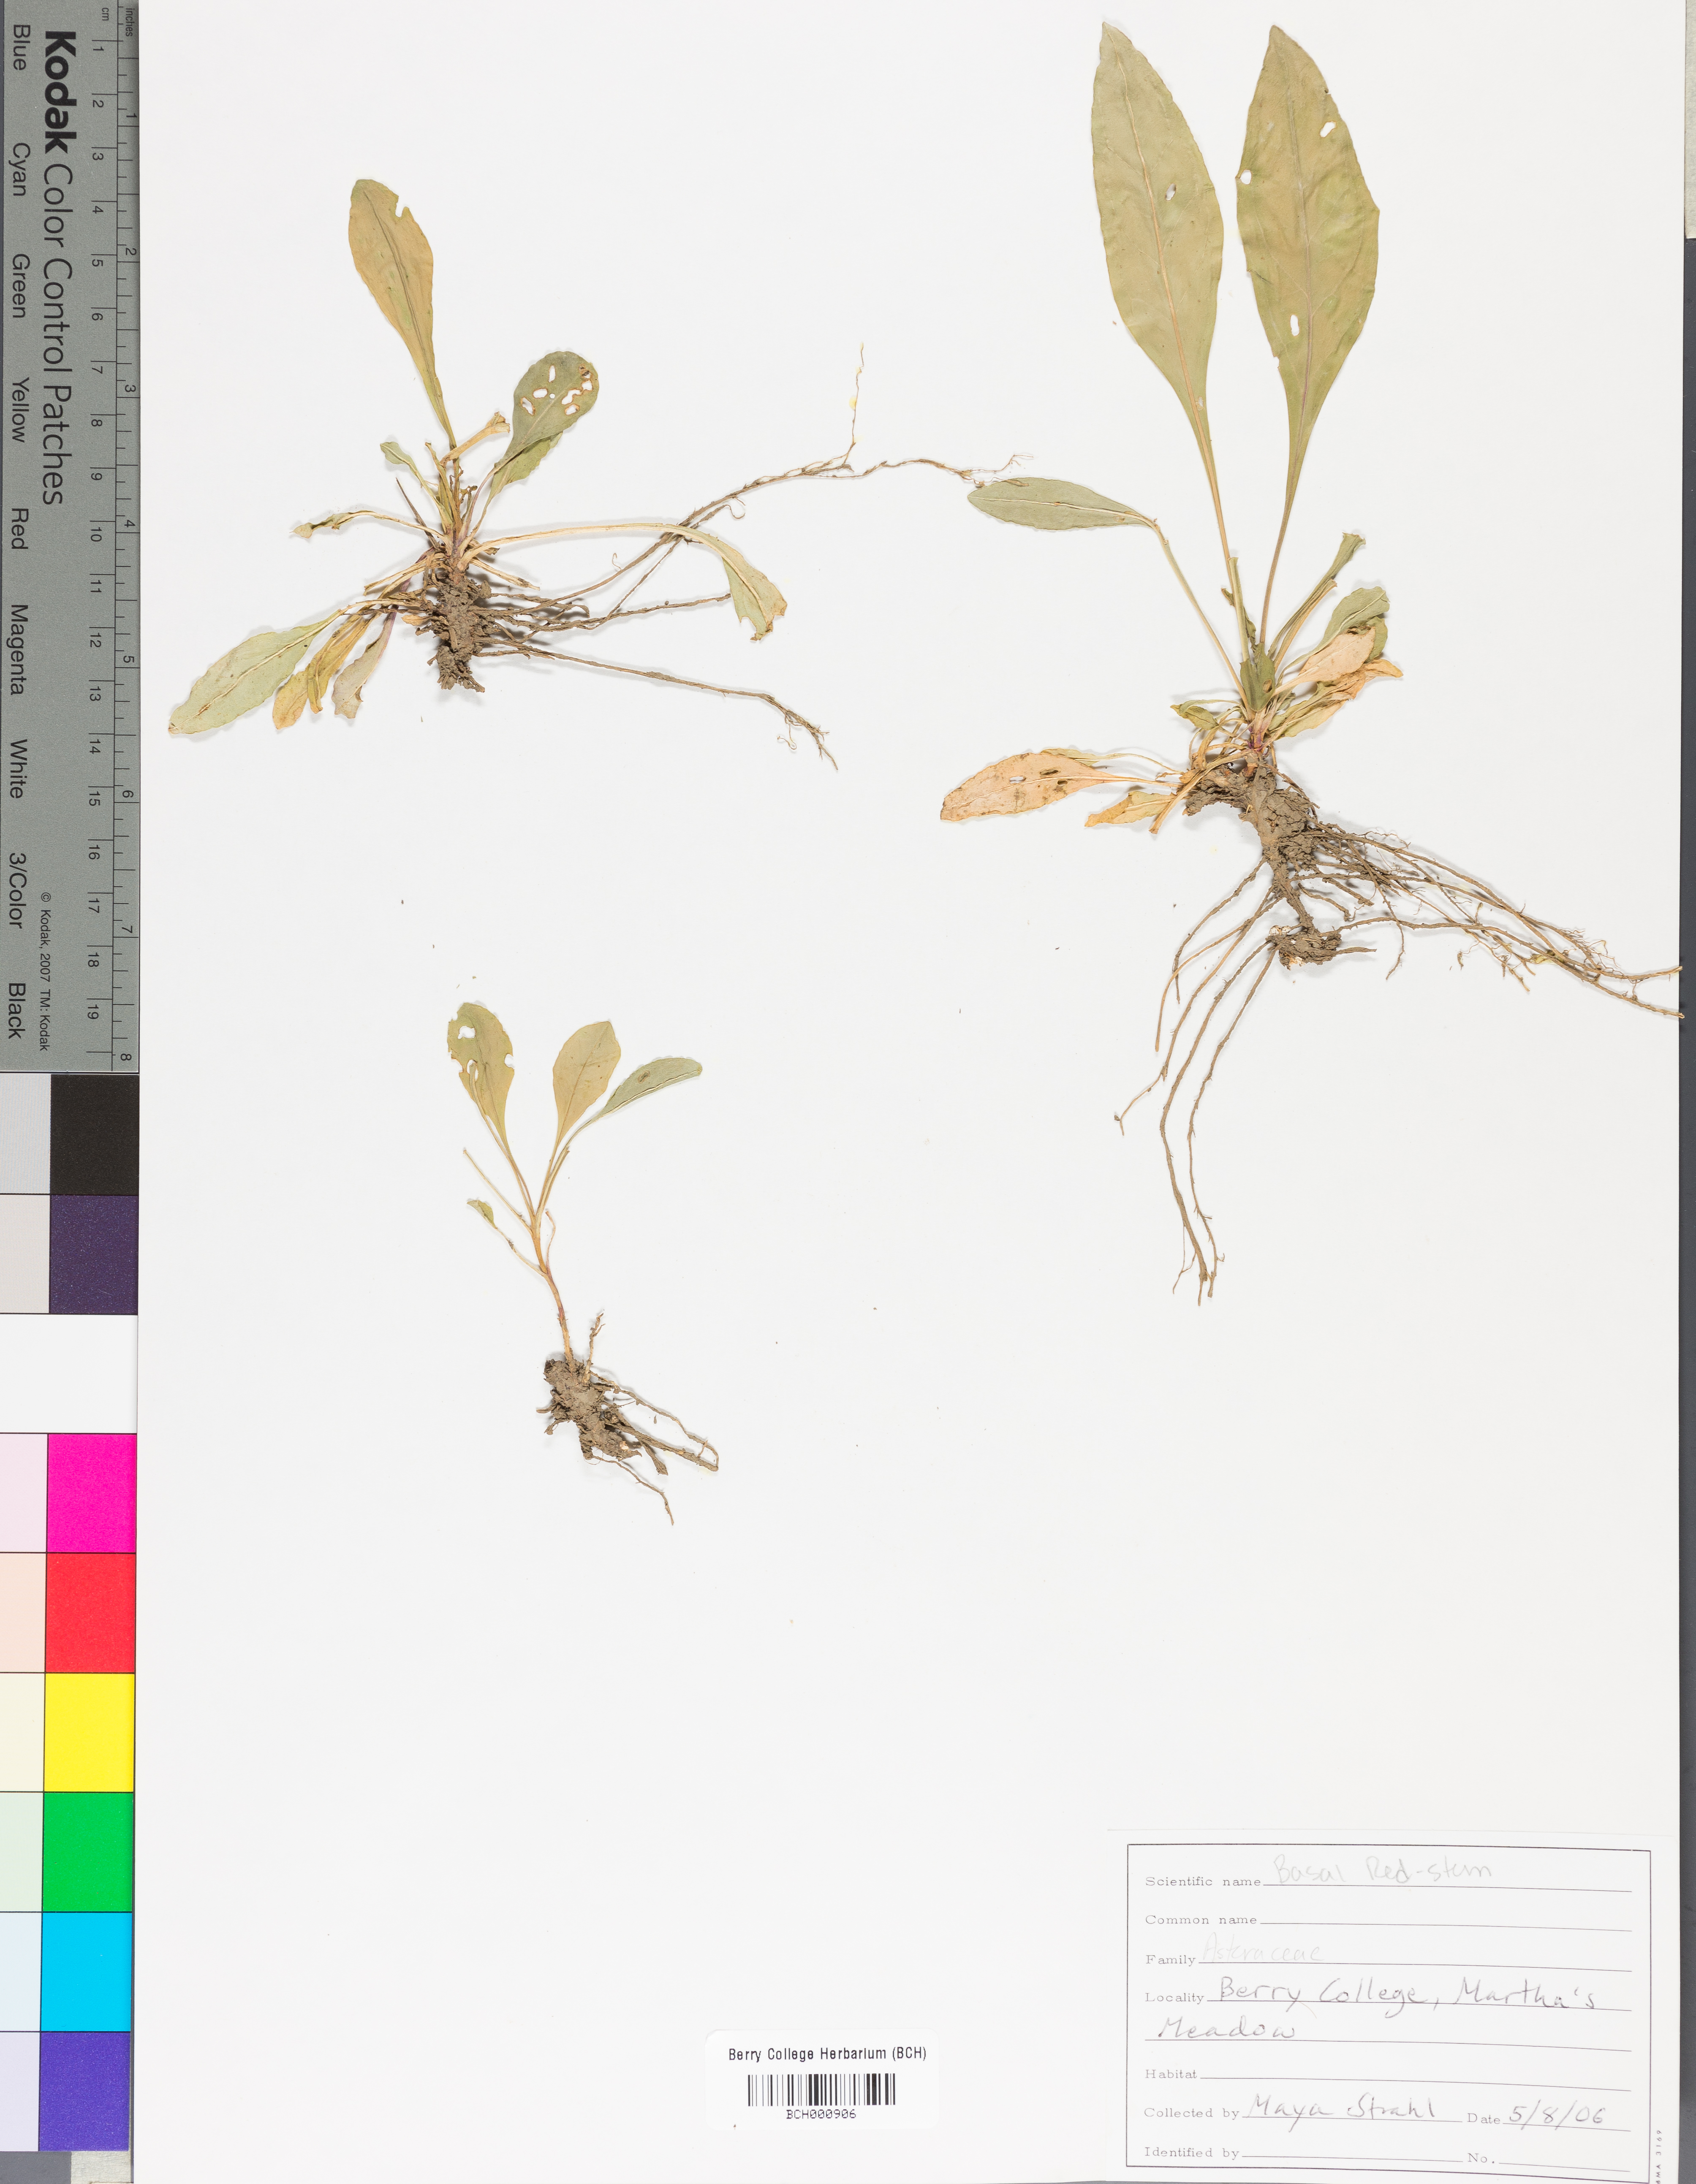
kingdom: Plantae
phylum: Tracheophyta
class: Magnoliopsida
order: Lamiales
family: Acanthaceae
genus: Adhatoda
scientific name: Adhatoda
